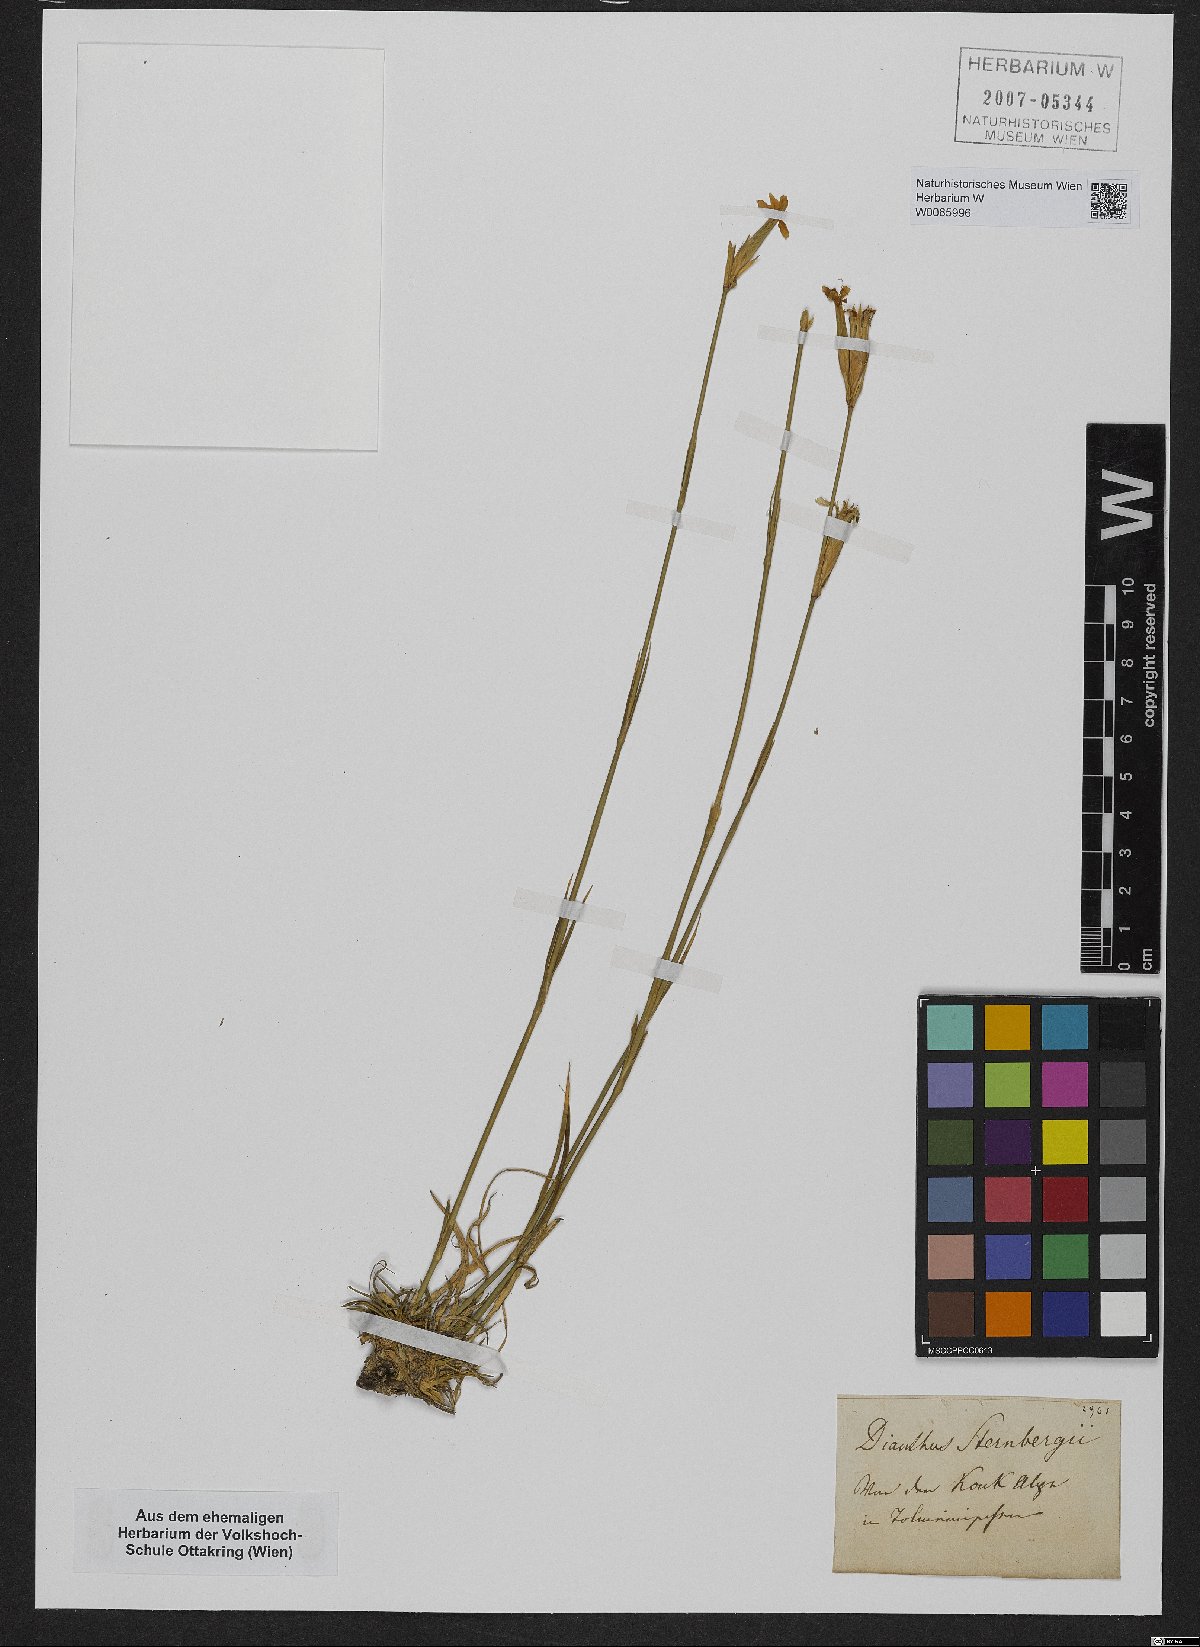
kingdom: Plantae
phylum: Tracheophyta
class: Magnoliopsida
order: Caryophyllales
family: Caryophyllaceae
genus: Dianthus
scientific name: Dianthus sternbergii
